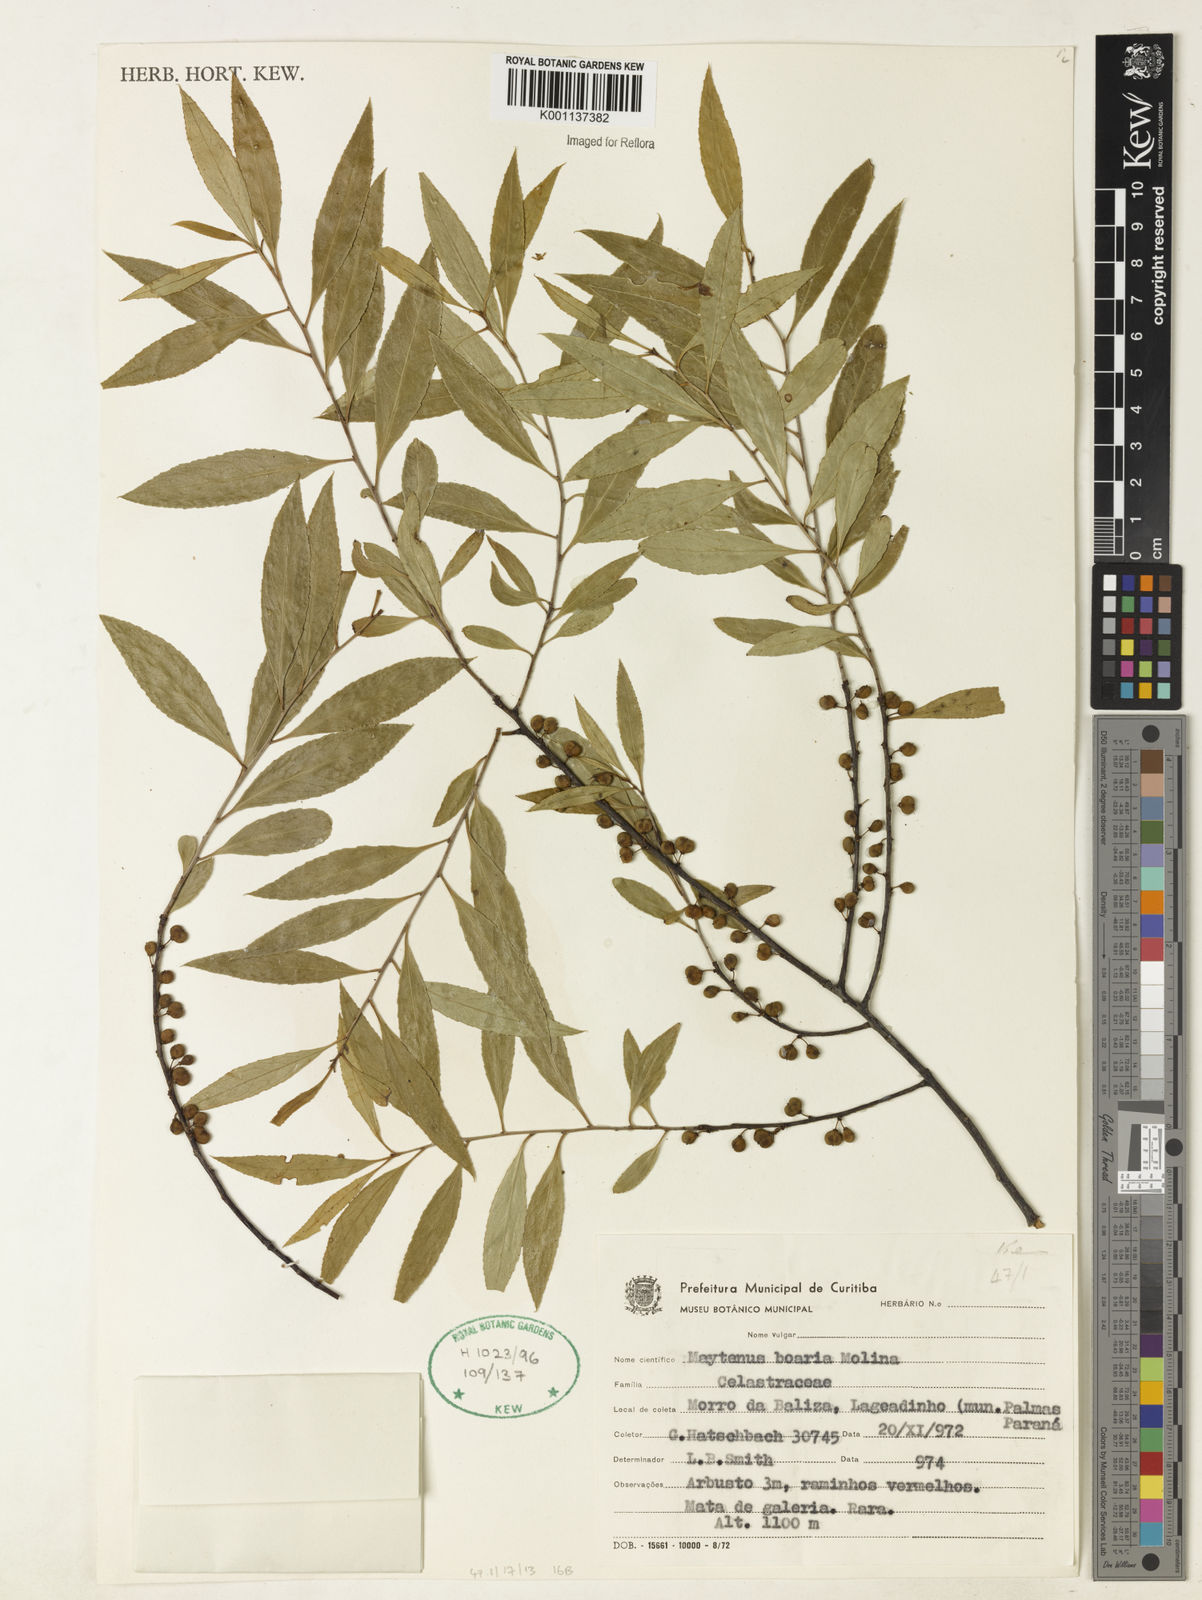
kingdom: Plantae
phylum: Tracheophyta
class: Magnoliopsida
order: Celastrales
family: Celastraceae
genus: Maytenus
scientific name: Maytenus boaria
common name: Mayten
